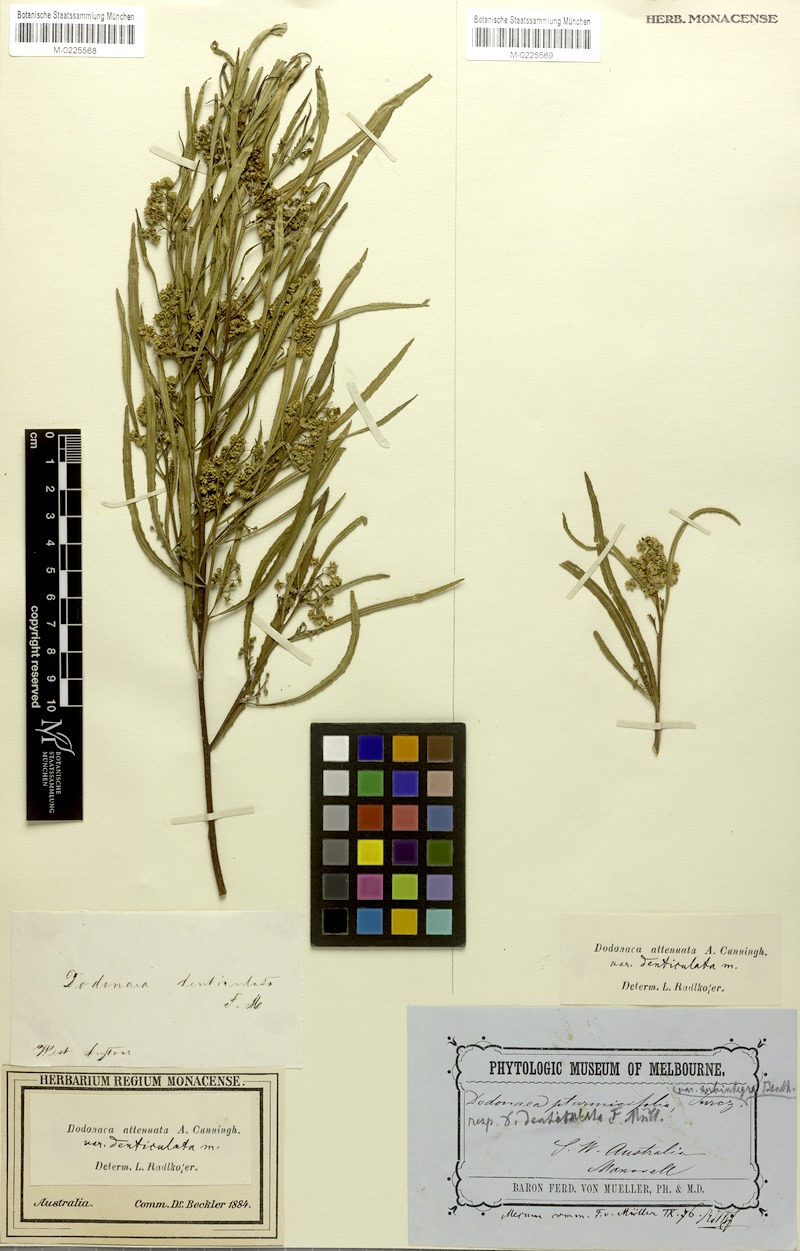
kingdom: Plantae
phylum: Tracheophyta
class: Magnoliopsida
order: Sapindales
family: Sapindaceae
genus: Dodonaea
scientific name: Dodonaea viscosa
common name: Hopbush
